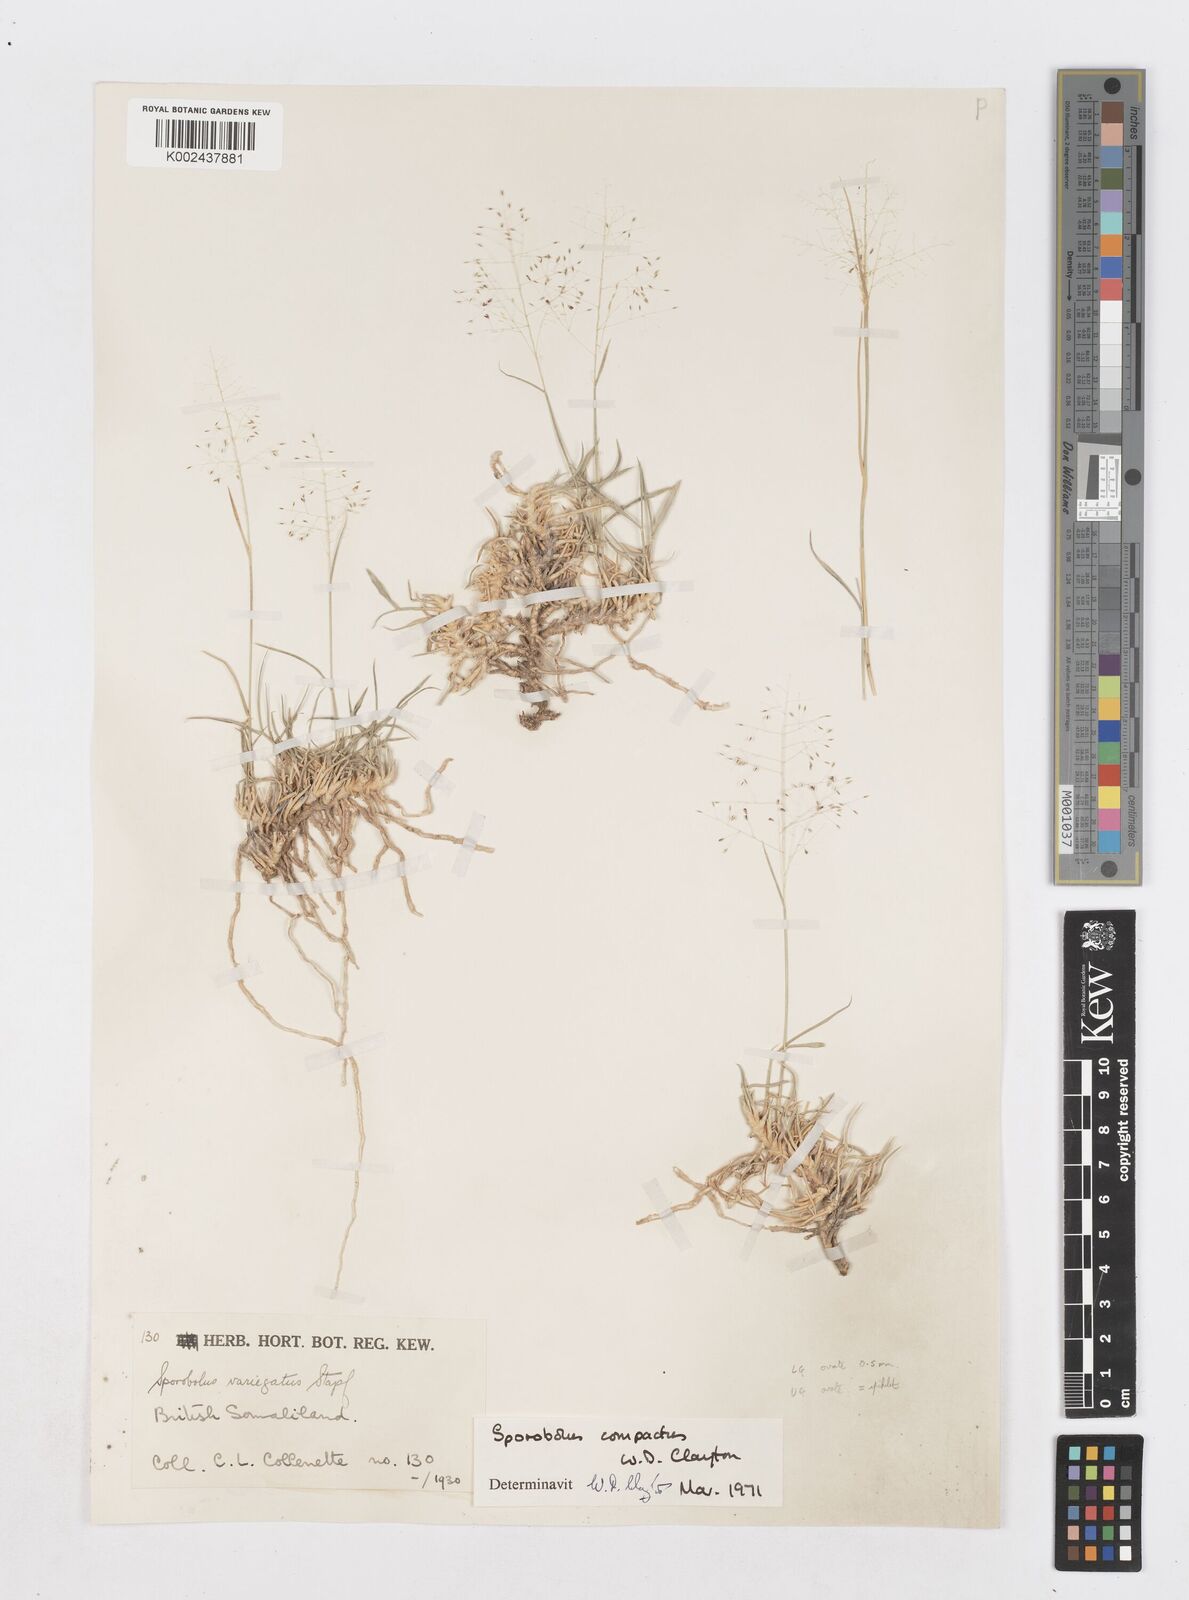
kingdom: Plantae
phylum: Tracheophyta
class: Liliopsida
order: Poales
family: Poaceae
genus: Sporobolus
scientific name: Sporobolus compactus
